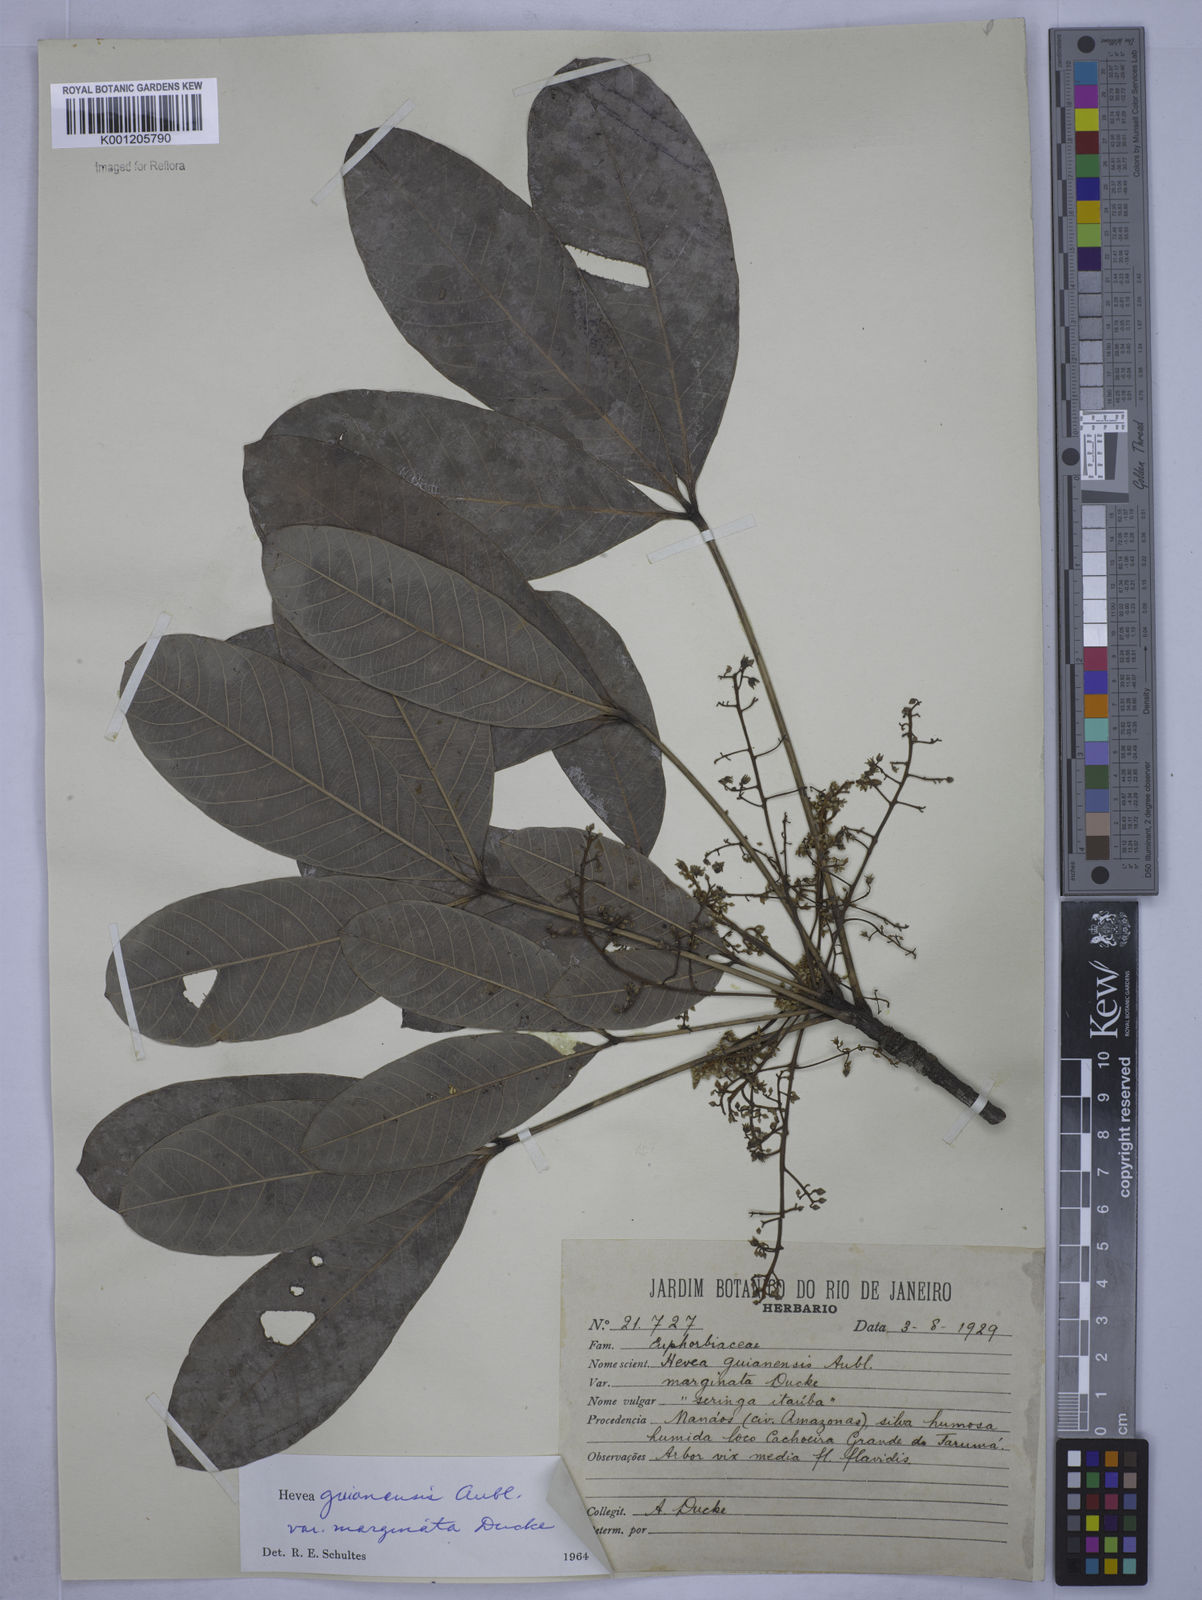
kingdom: Plantae
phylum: Tracheophyta
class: Magnoliopsida
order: Malpighiales
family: Euphorbiaceae
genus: Hevea
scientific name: Hevea guianensis
